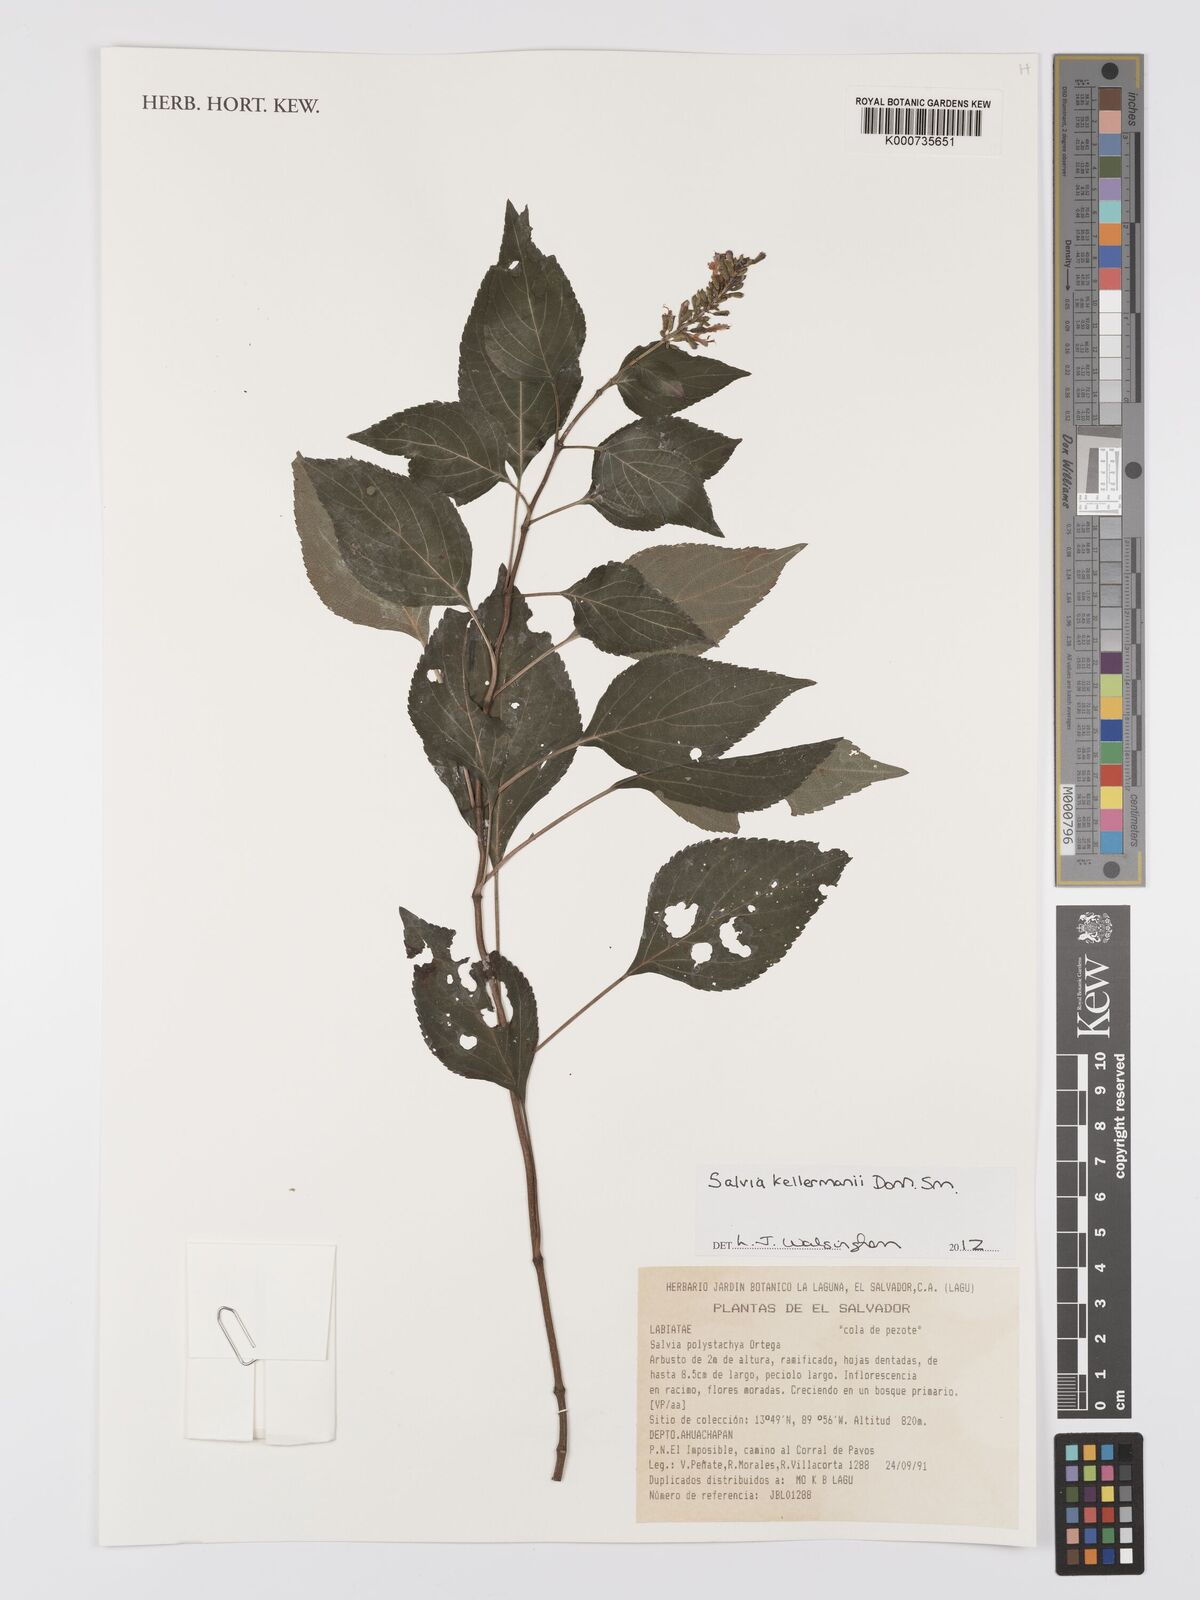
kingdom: Plantae
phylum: Tracheophyta
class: Magnoliopsida
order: Lamiales
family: Lamiaceae
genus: Salvia
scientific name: Salvia kellermanii
